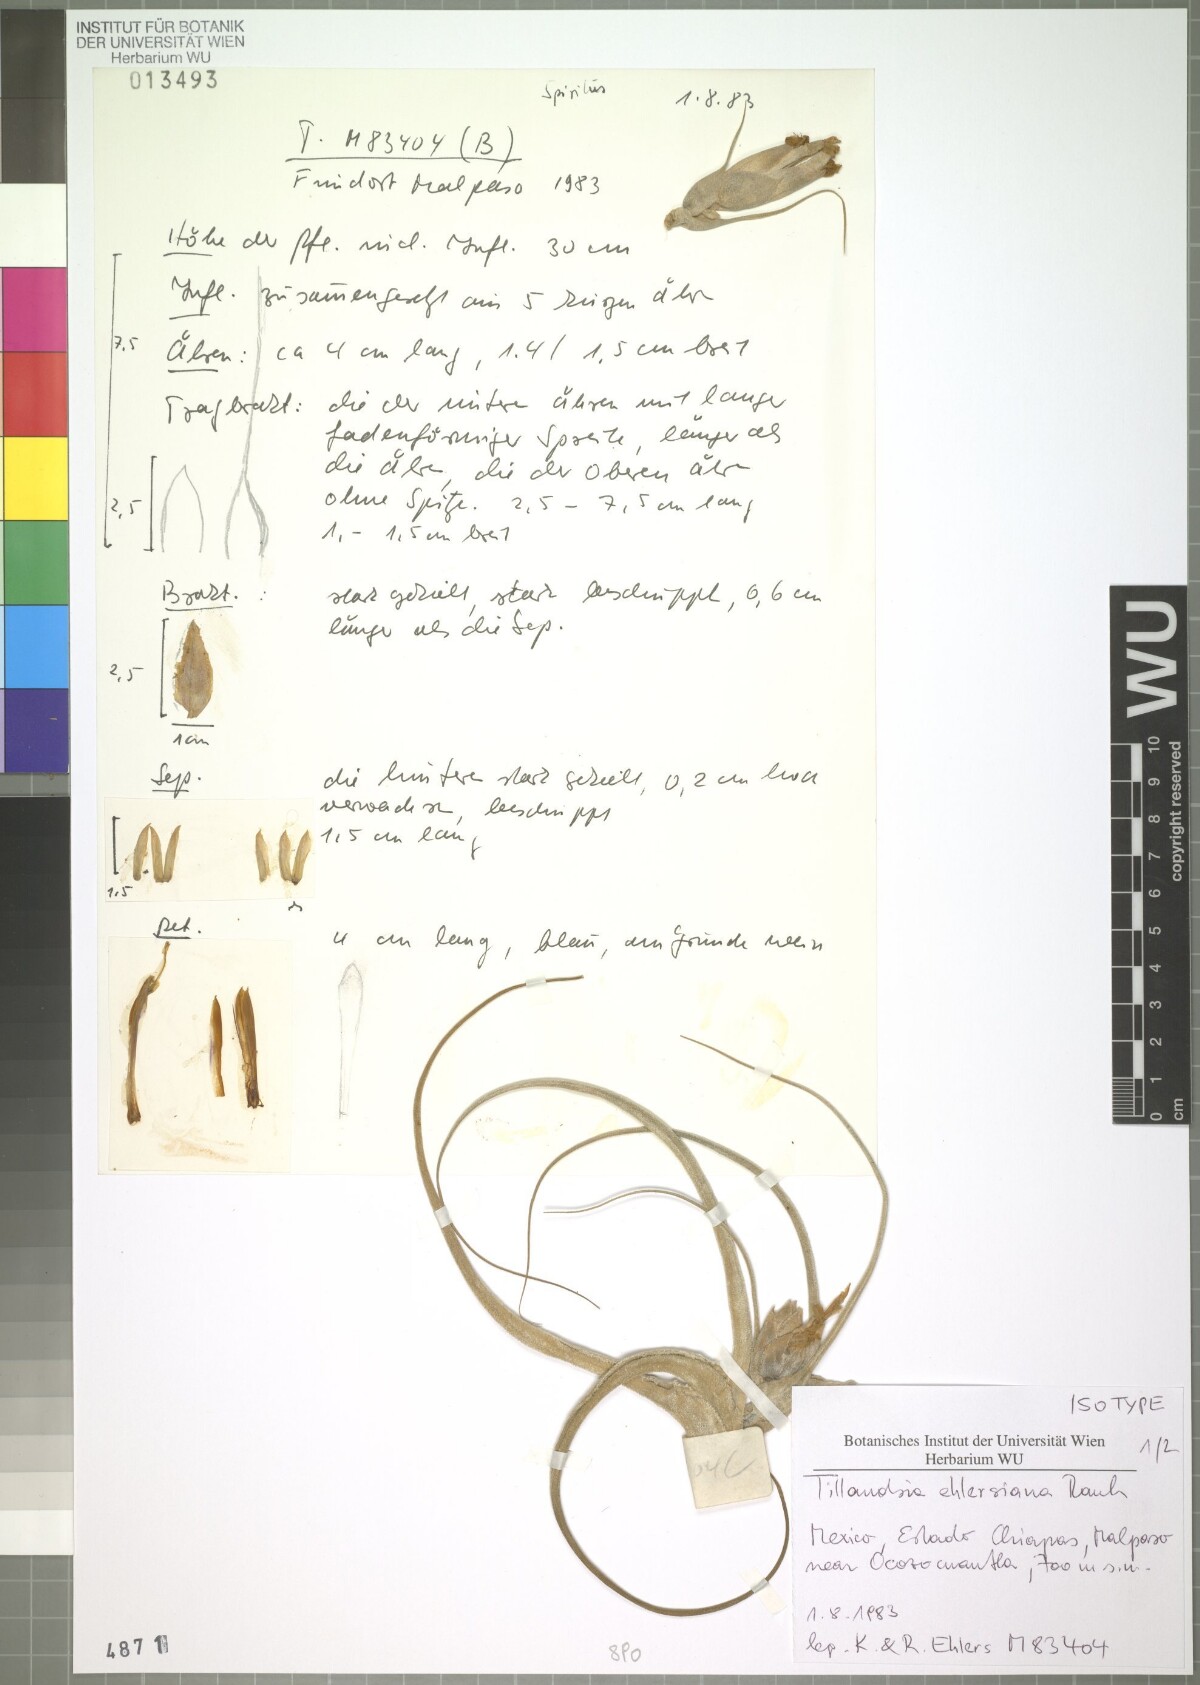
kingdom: Plantae
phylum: Tracheophyta
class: Liliopsida
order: Poales
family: Bromeliaceae
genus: Tillandsia
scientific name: Tillandsia seleriana
